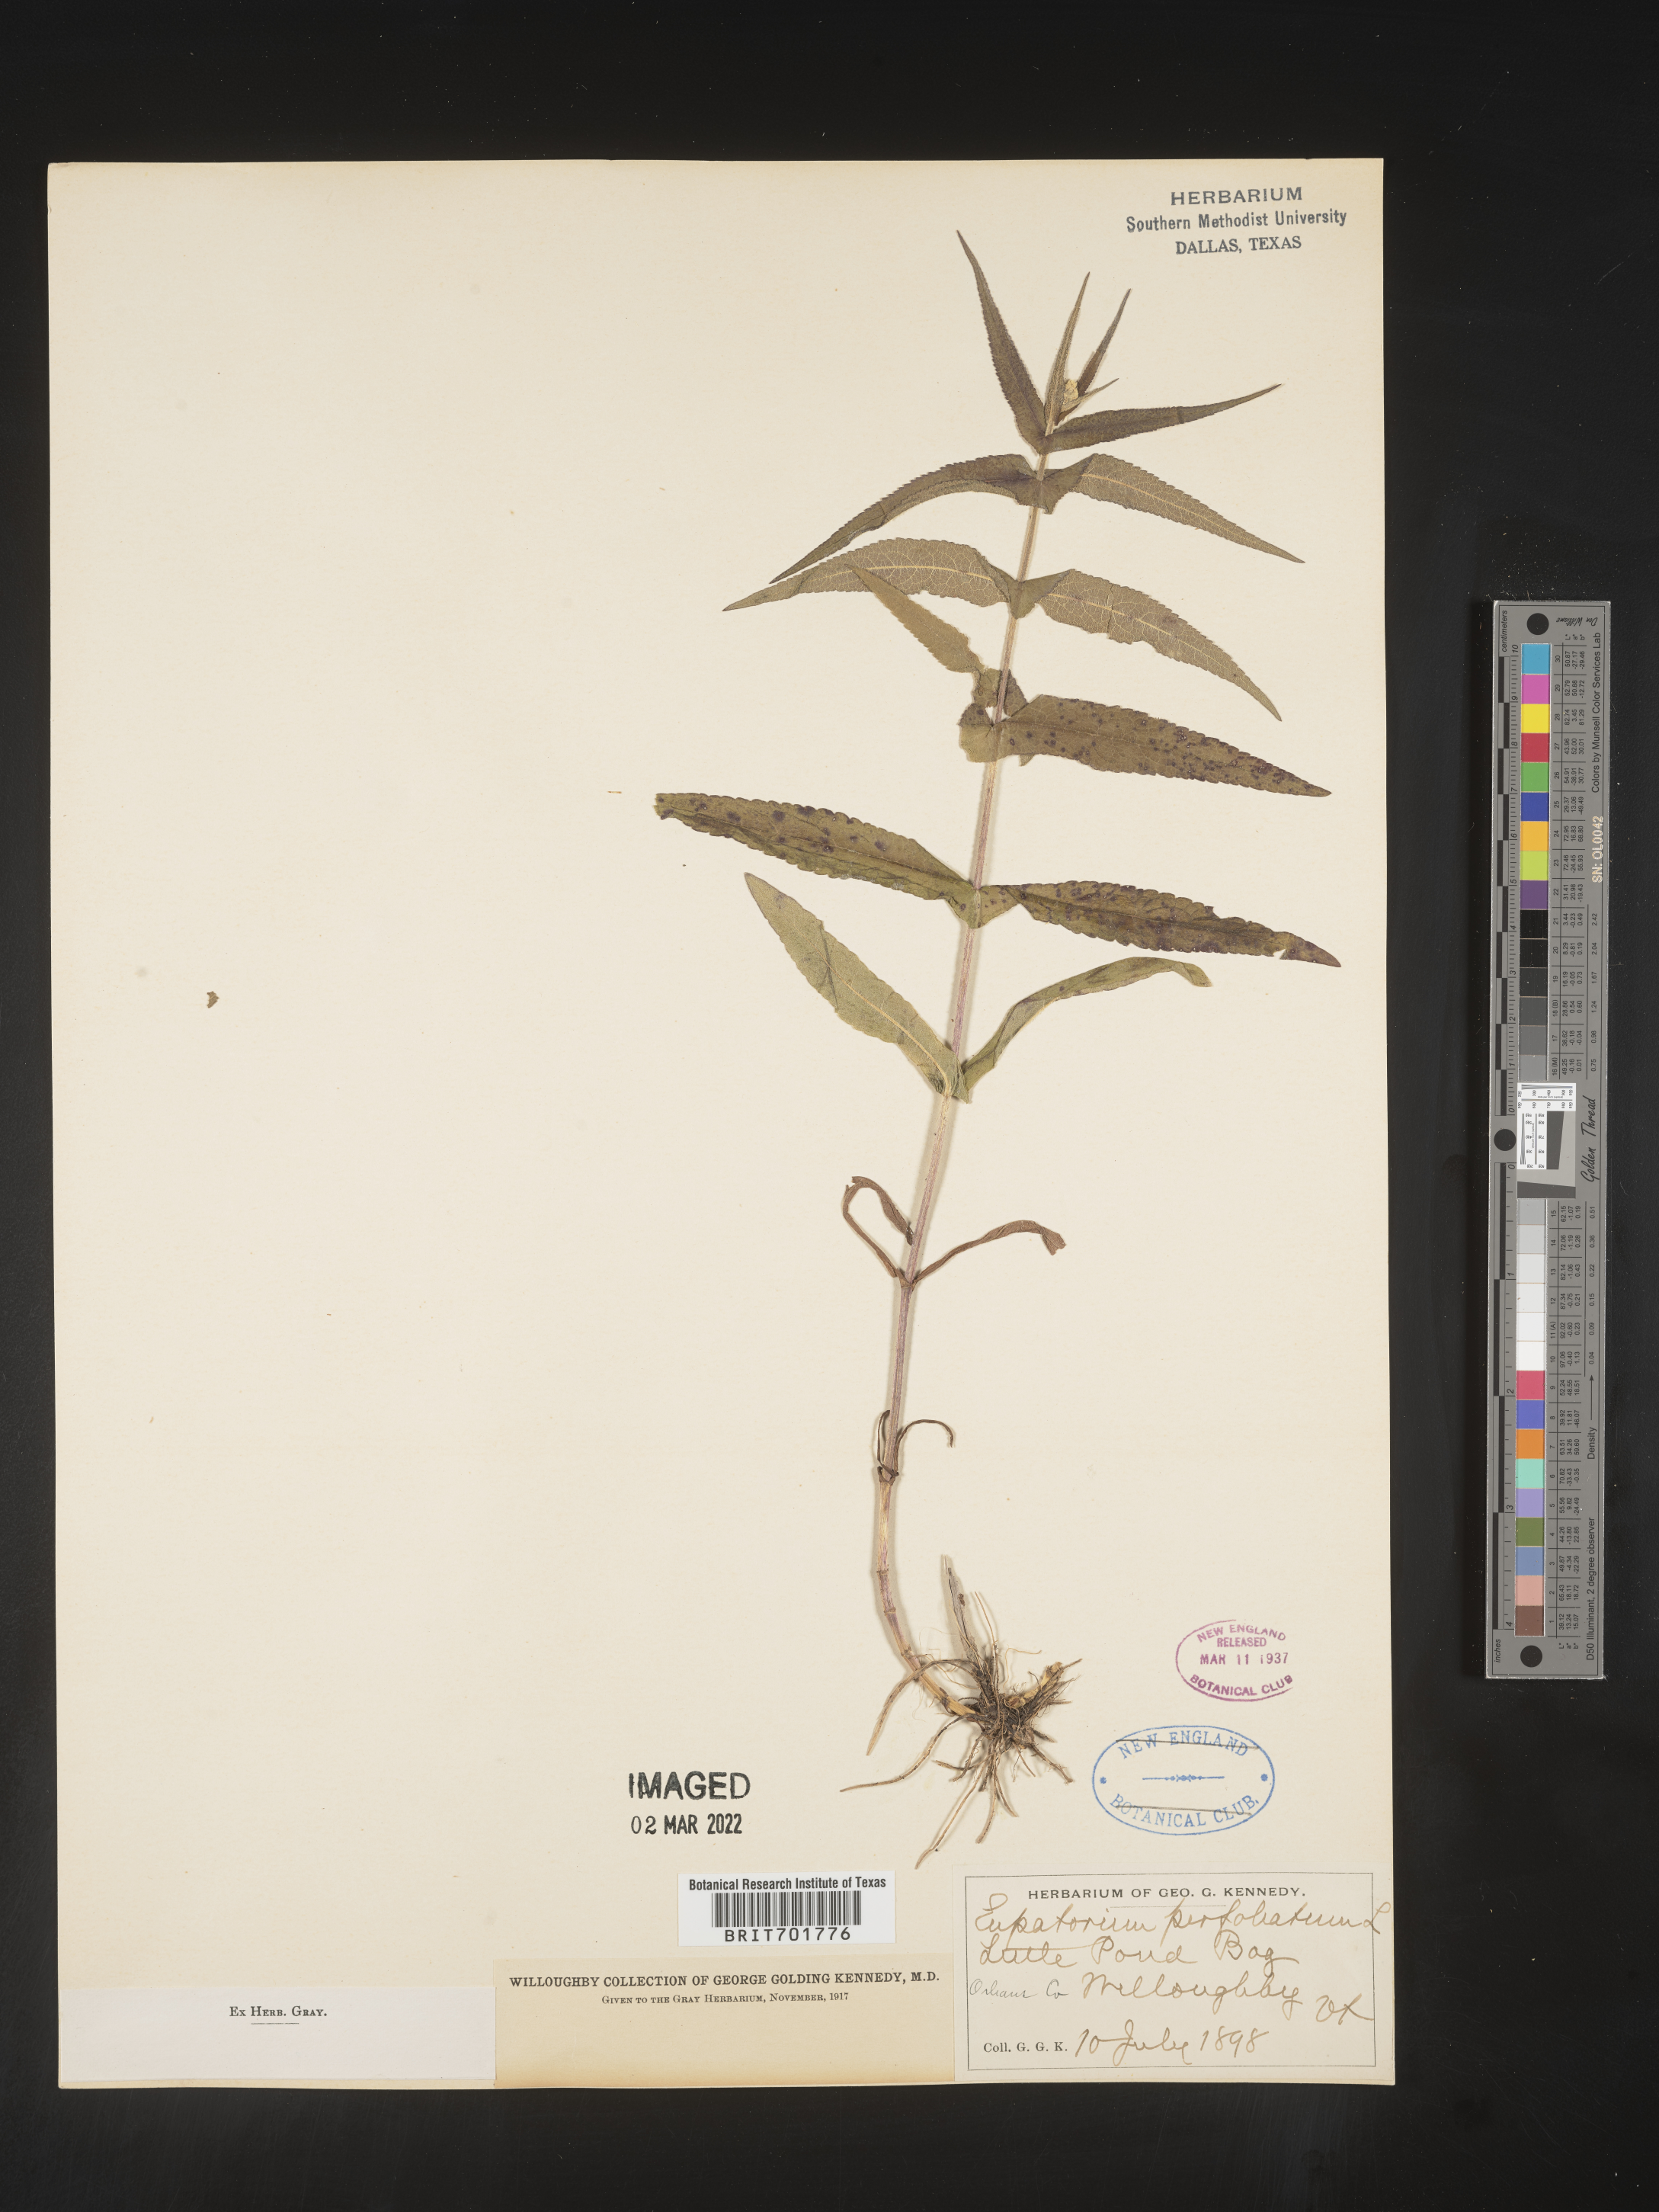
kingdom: Plantae
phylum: Tracheophyta
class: Magnoliopsida
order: Asterales
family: Asteraceae
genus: Eupatorium
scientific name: Eupatorium perfoliatum
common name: Boneset
